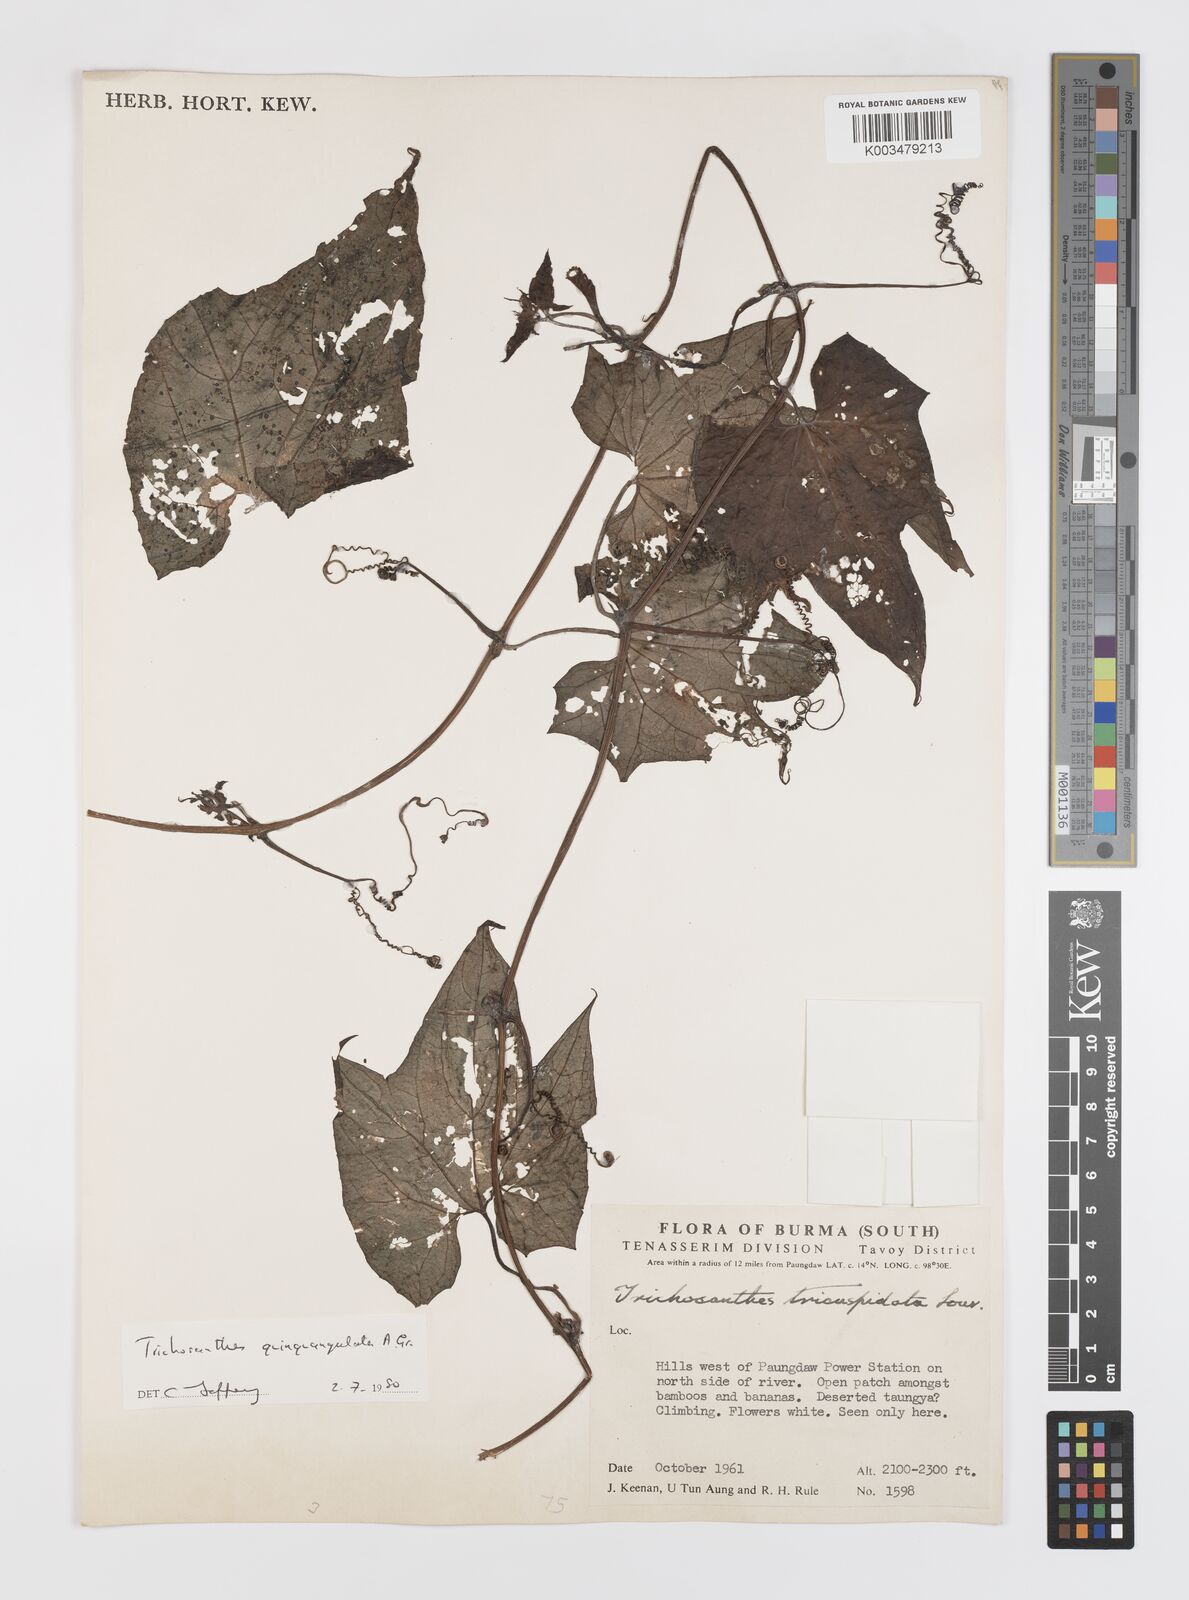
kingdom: Plantae
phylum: Tracheophyta
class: Magnoliopsida
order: Cucurbitales
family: Cucurbitaceae
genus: Trichosanthes
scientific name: Trichosanthes quinquangulata
